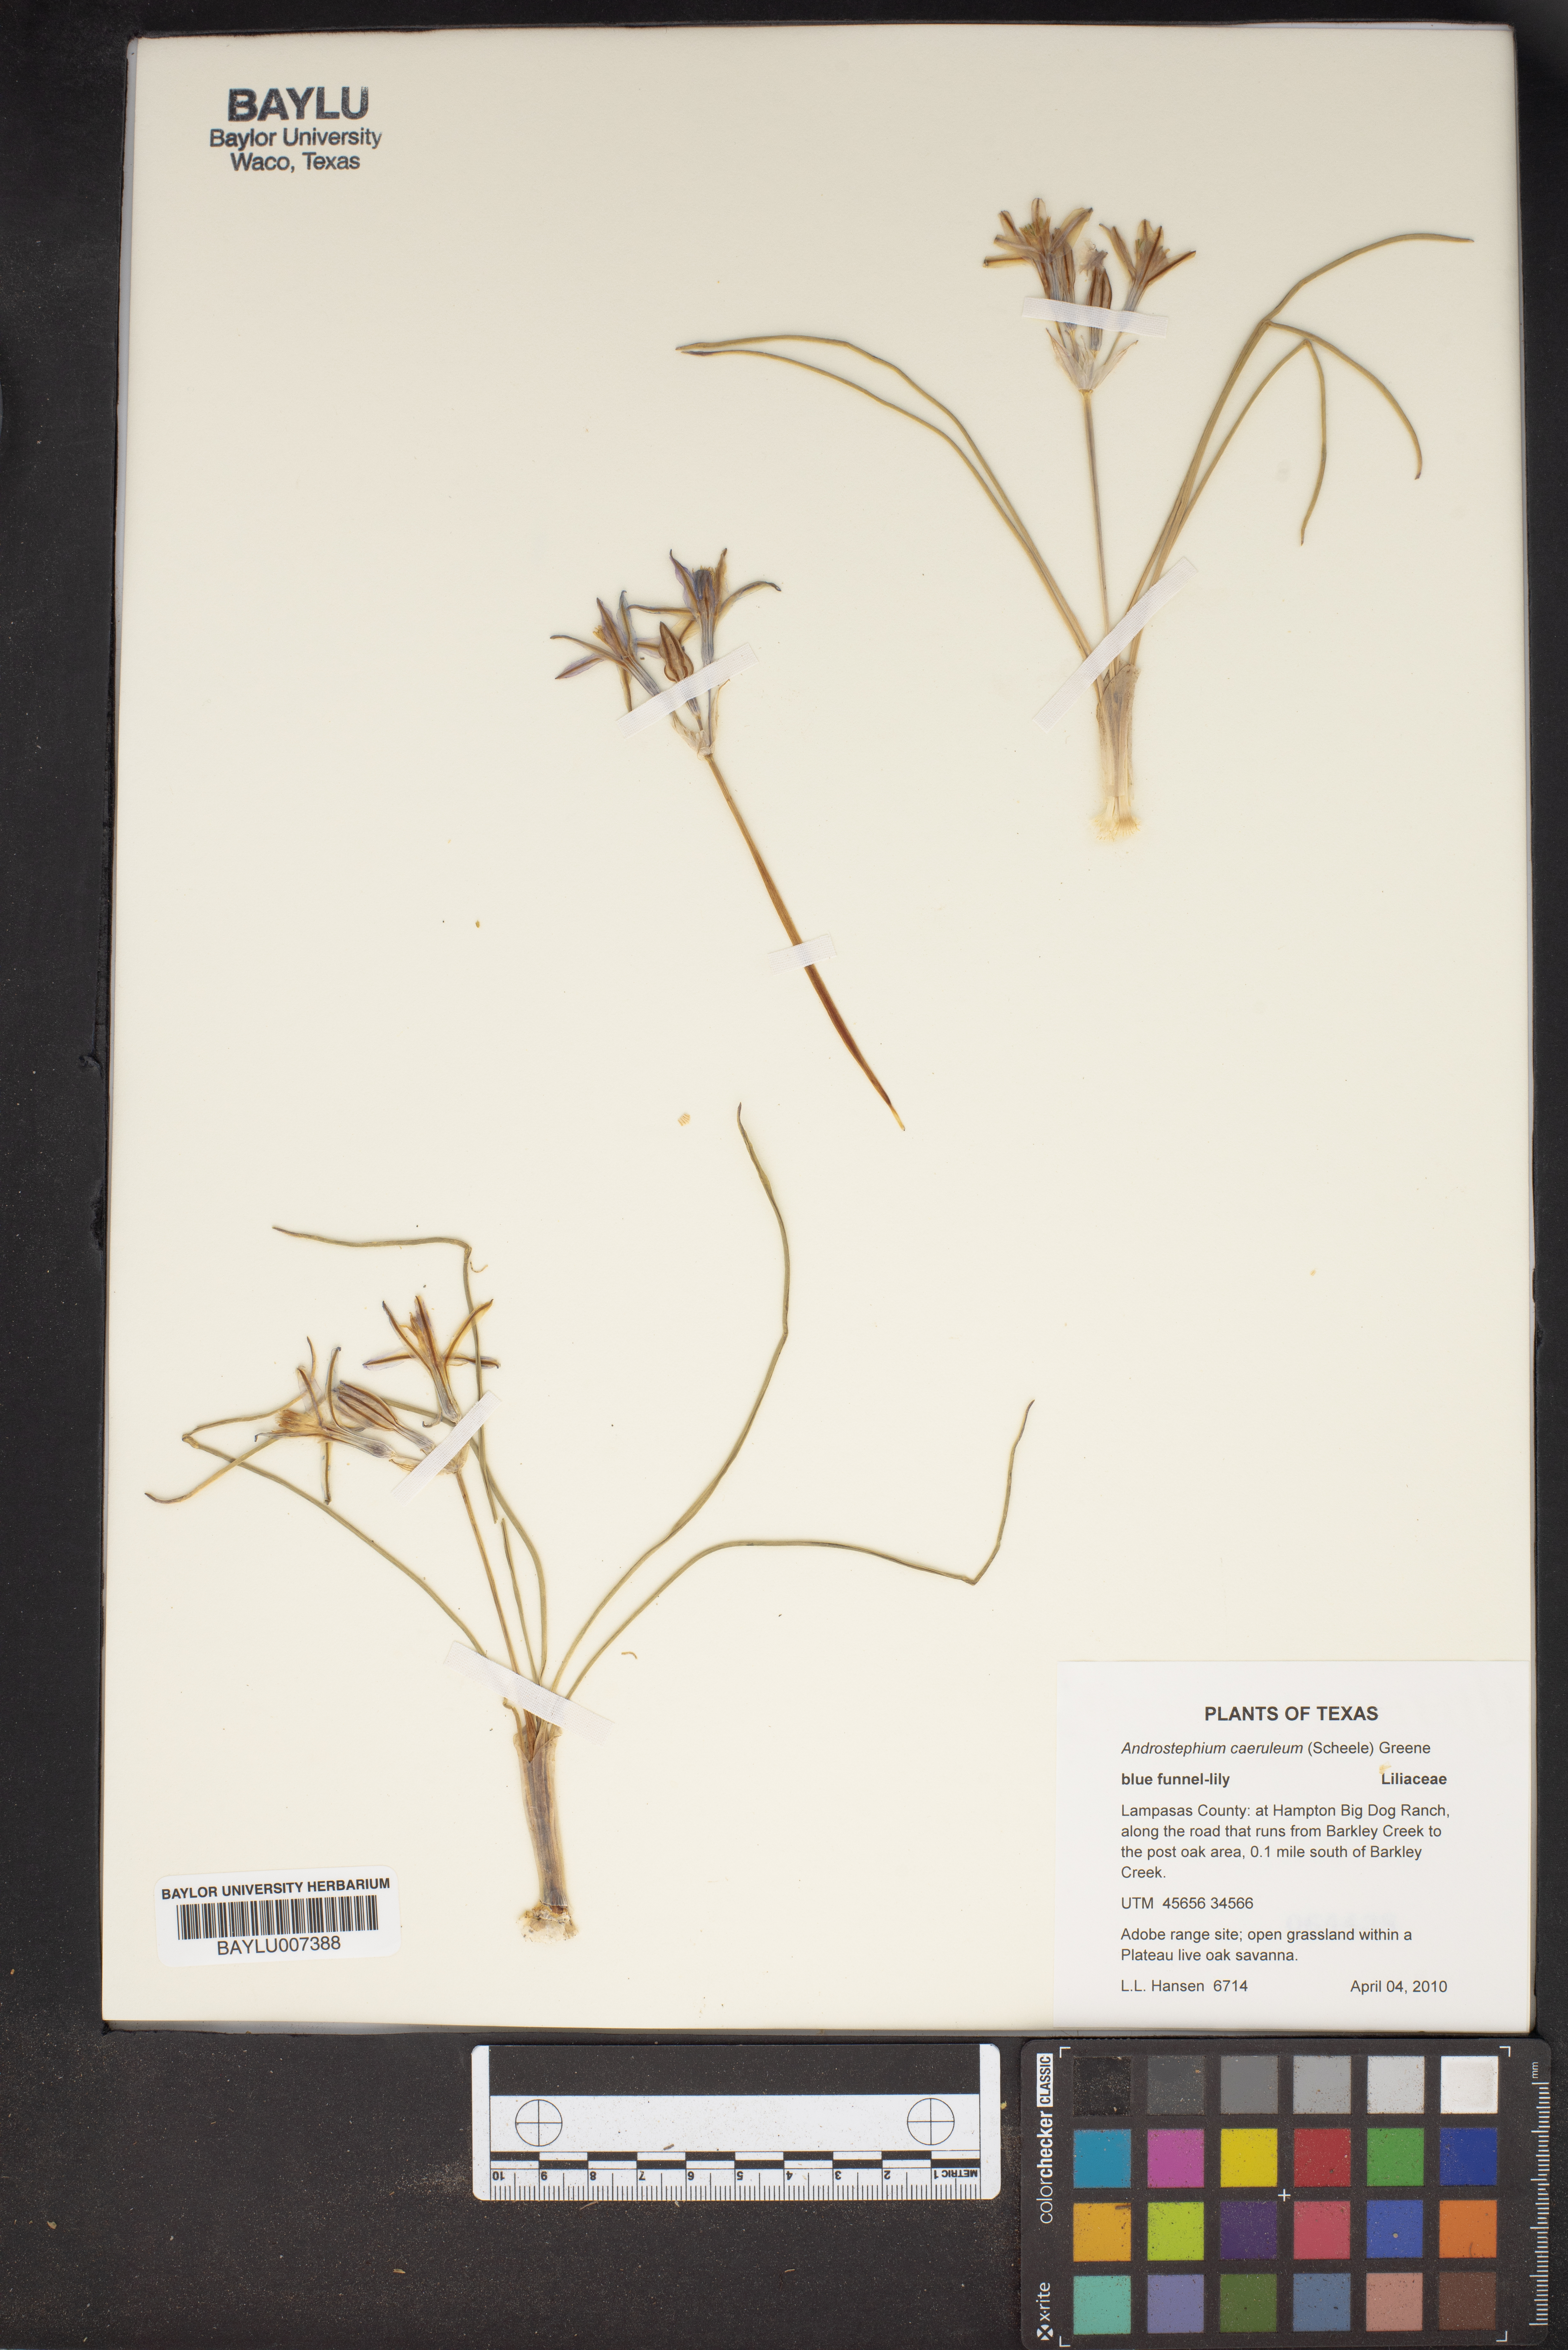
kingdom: Plantae
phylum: Tracheophyta
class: Liliopsida
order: Asparagales
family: Asparagaceae
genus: Androstephium
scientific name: Androstephium caeruleum
